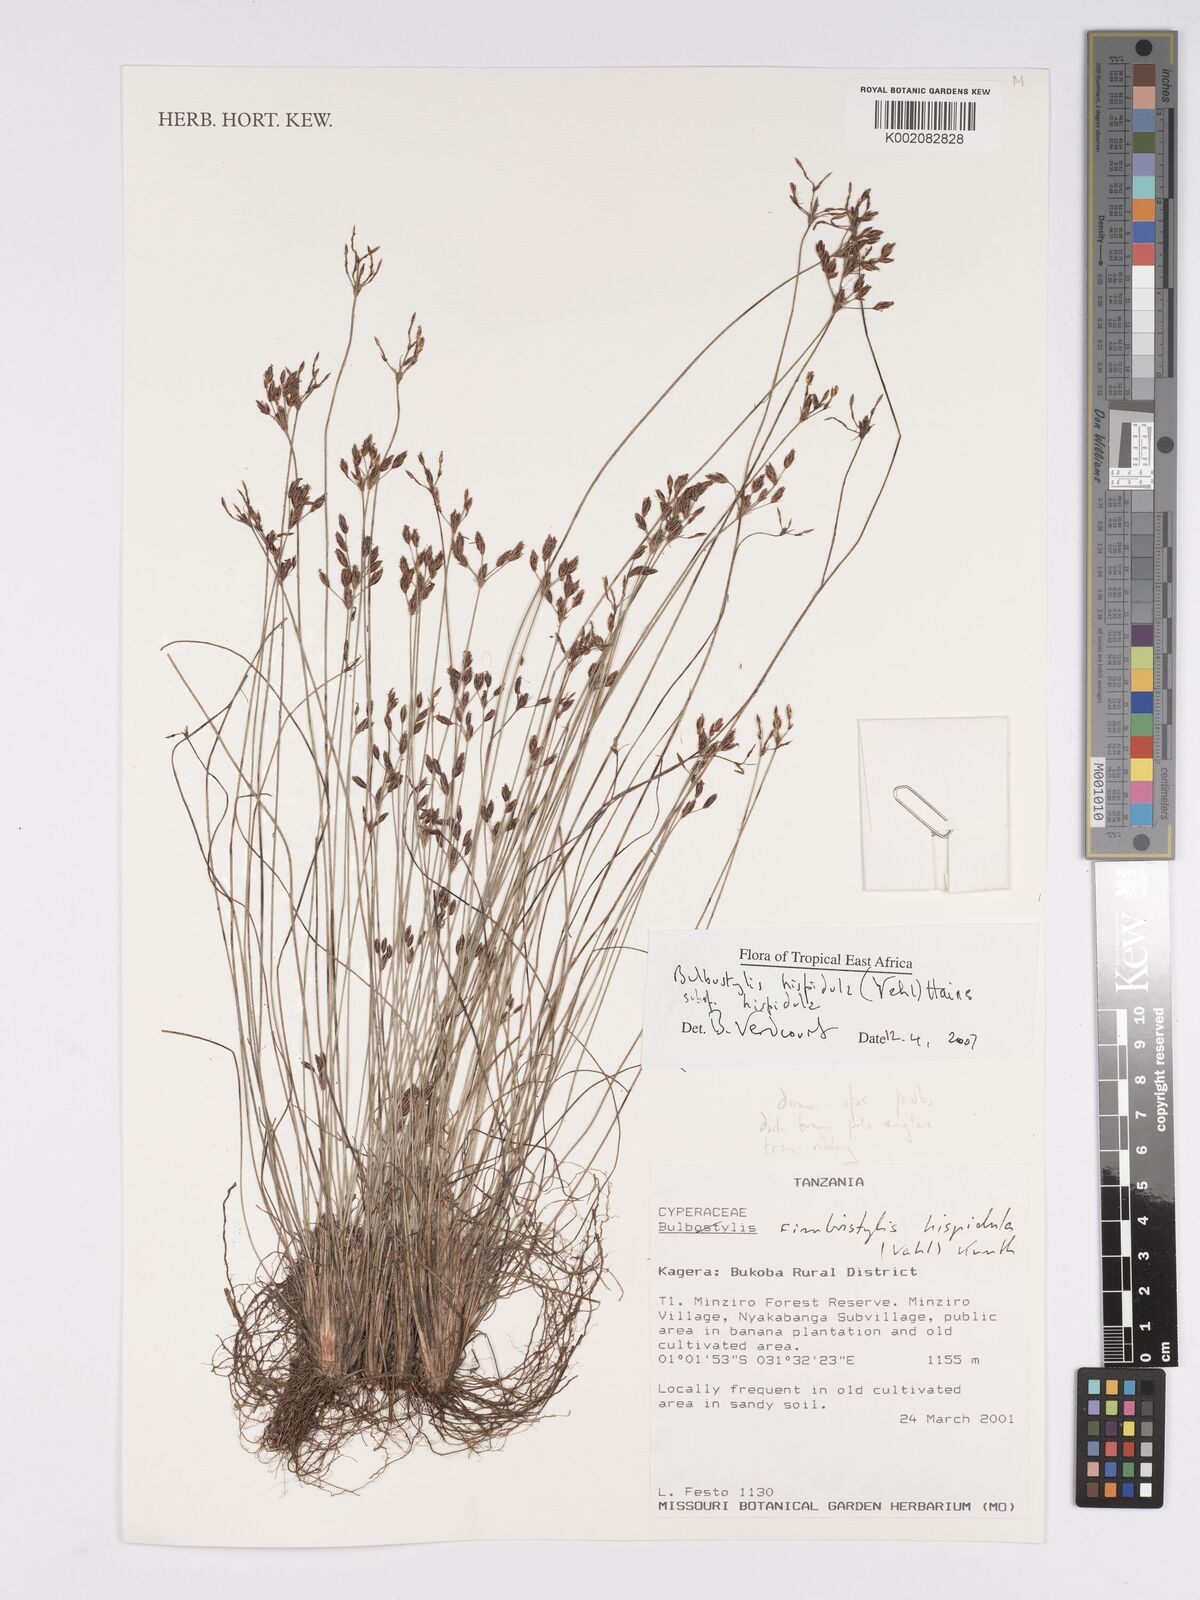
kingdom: Plantae
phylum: Tracheophyta
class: Liliopsida
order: Poales
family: Cyperaceae
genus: Bulbostylis
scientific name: Bulbostylis hispidula
